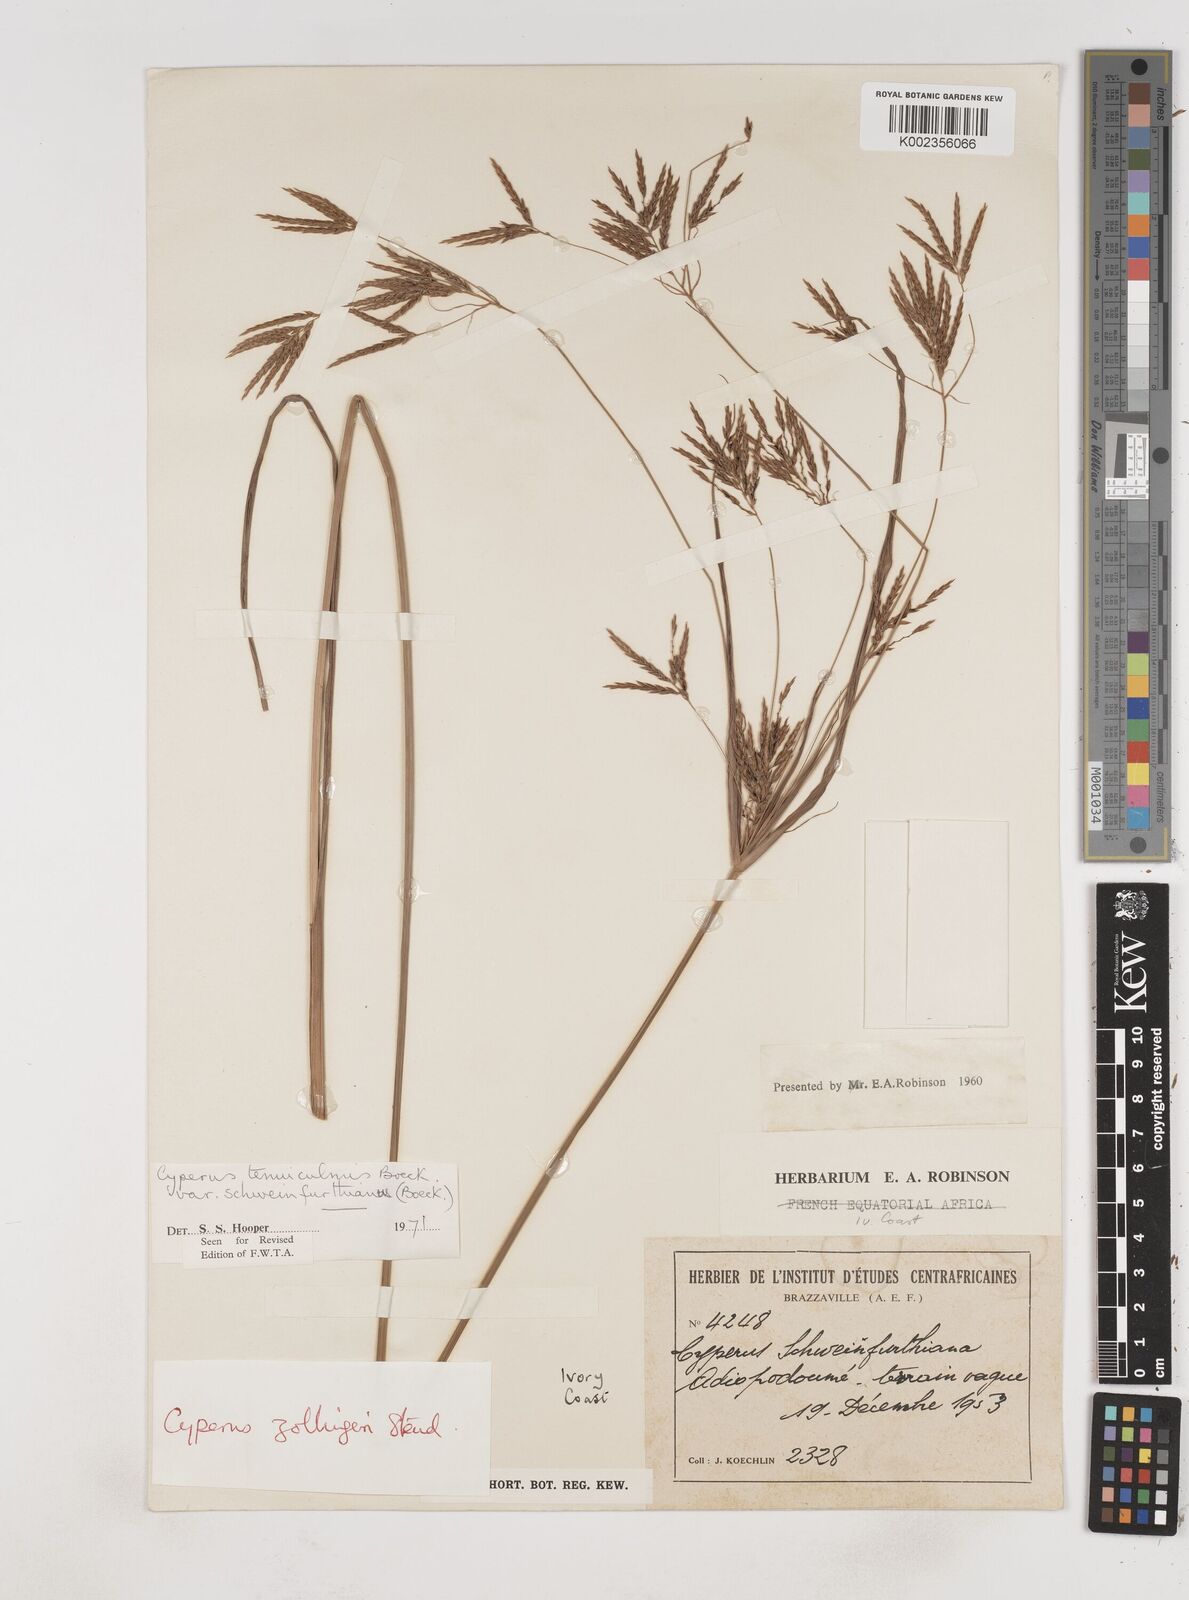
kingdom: Plantae
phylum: Tracheophyta
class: Liliopsida
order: Poales
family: Cyperaceae
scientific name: Cyperaceae
